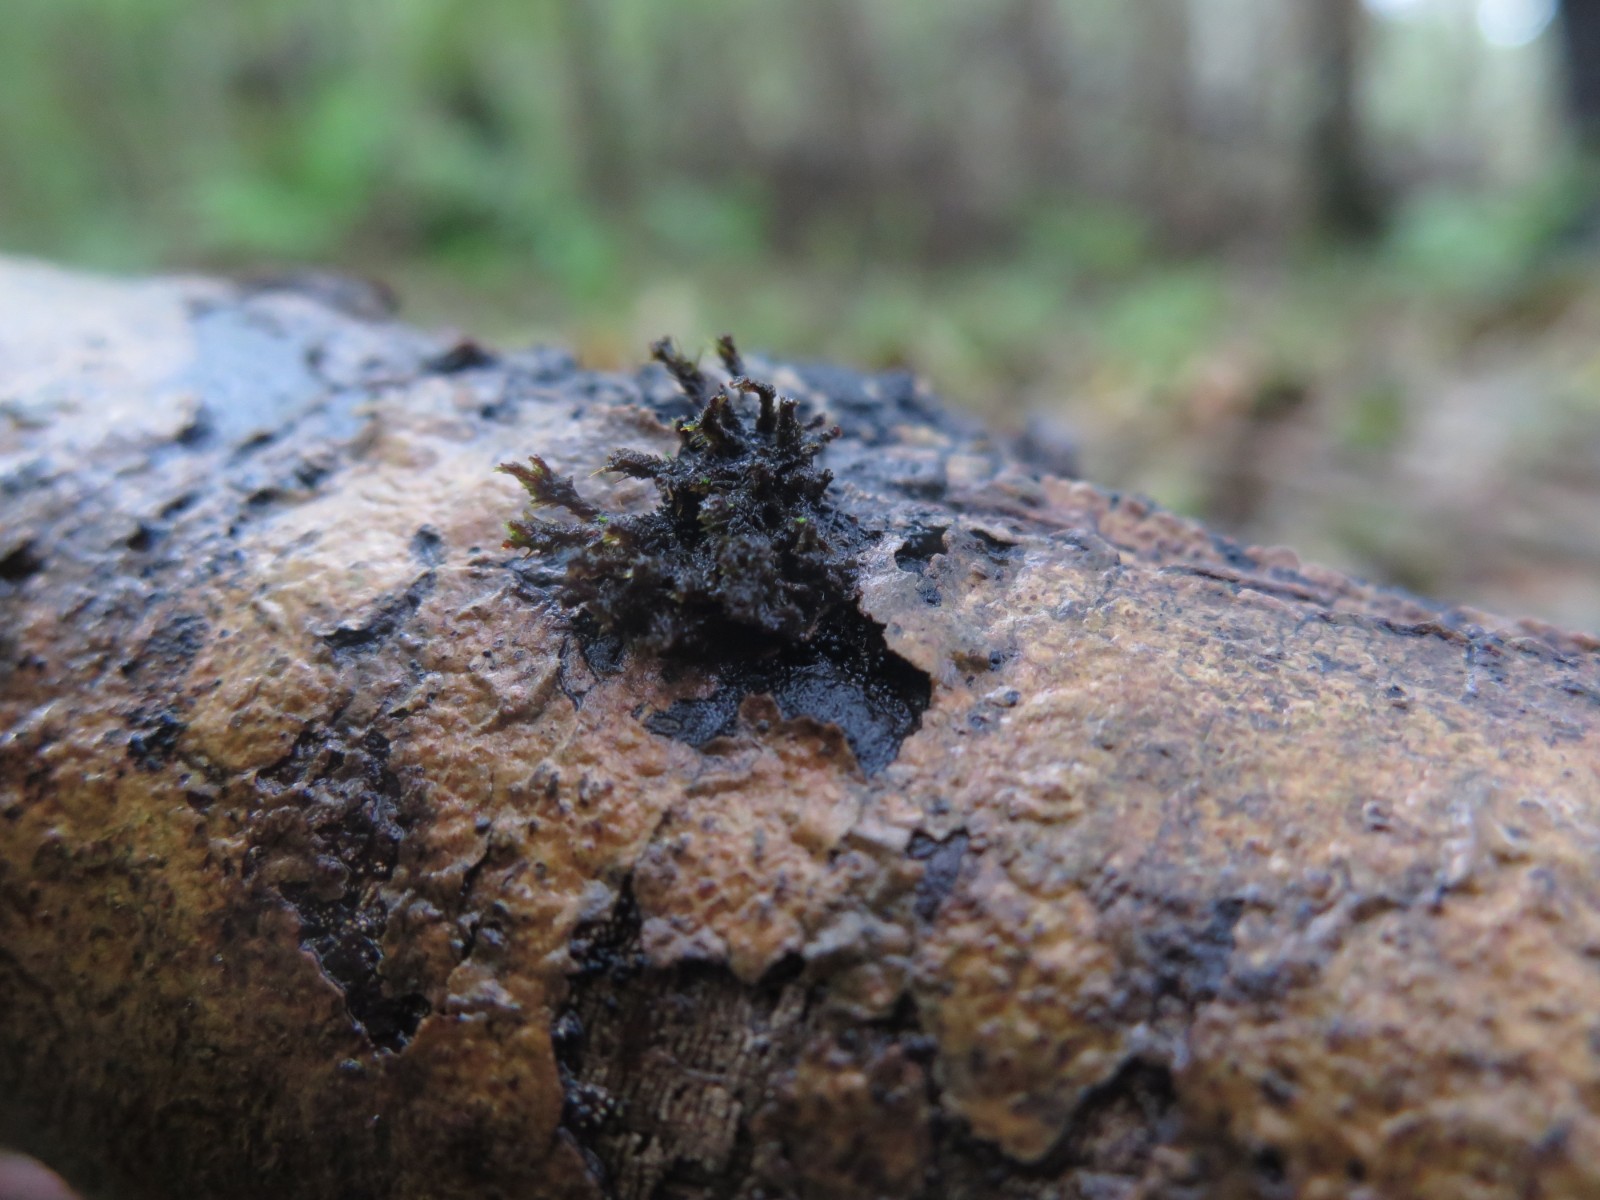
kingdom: Fungi
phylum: Ascomycota
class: Sordariomycetes
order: Sordariales
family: Helminthosphaeriaceae
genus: Ruzenia
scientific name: Ruzenia spermoides
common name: glat børstekerne
